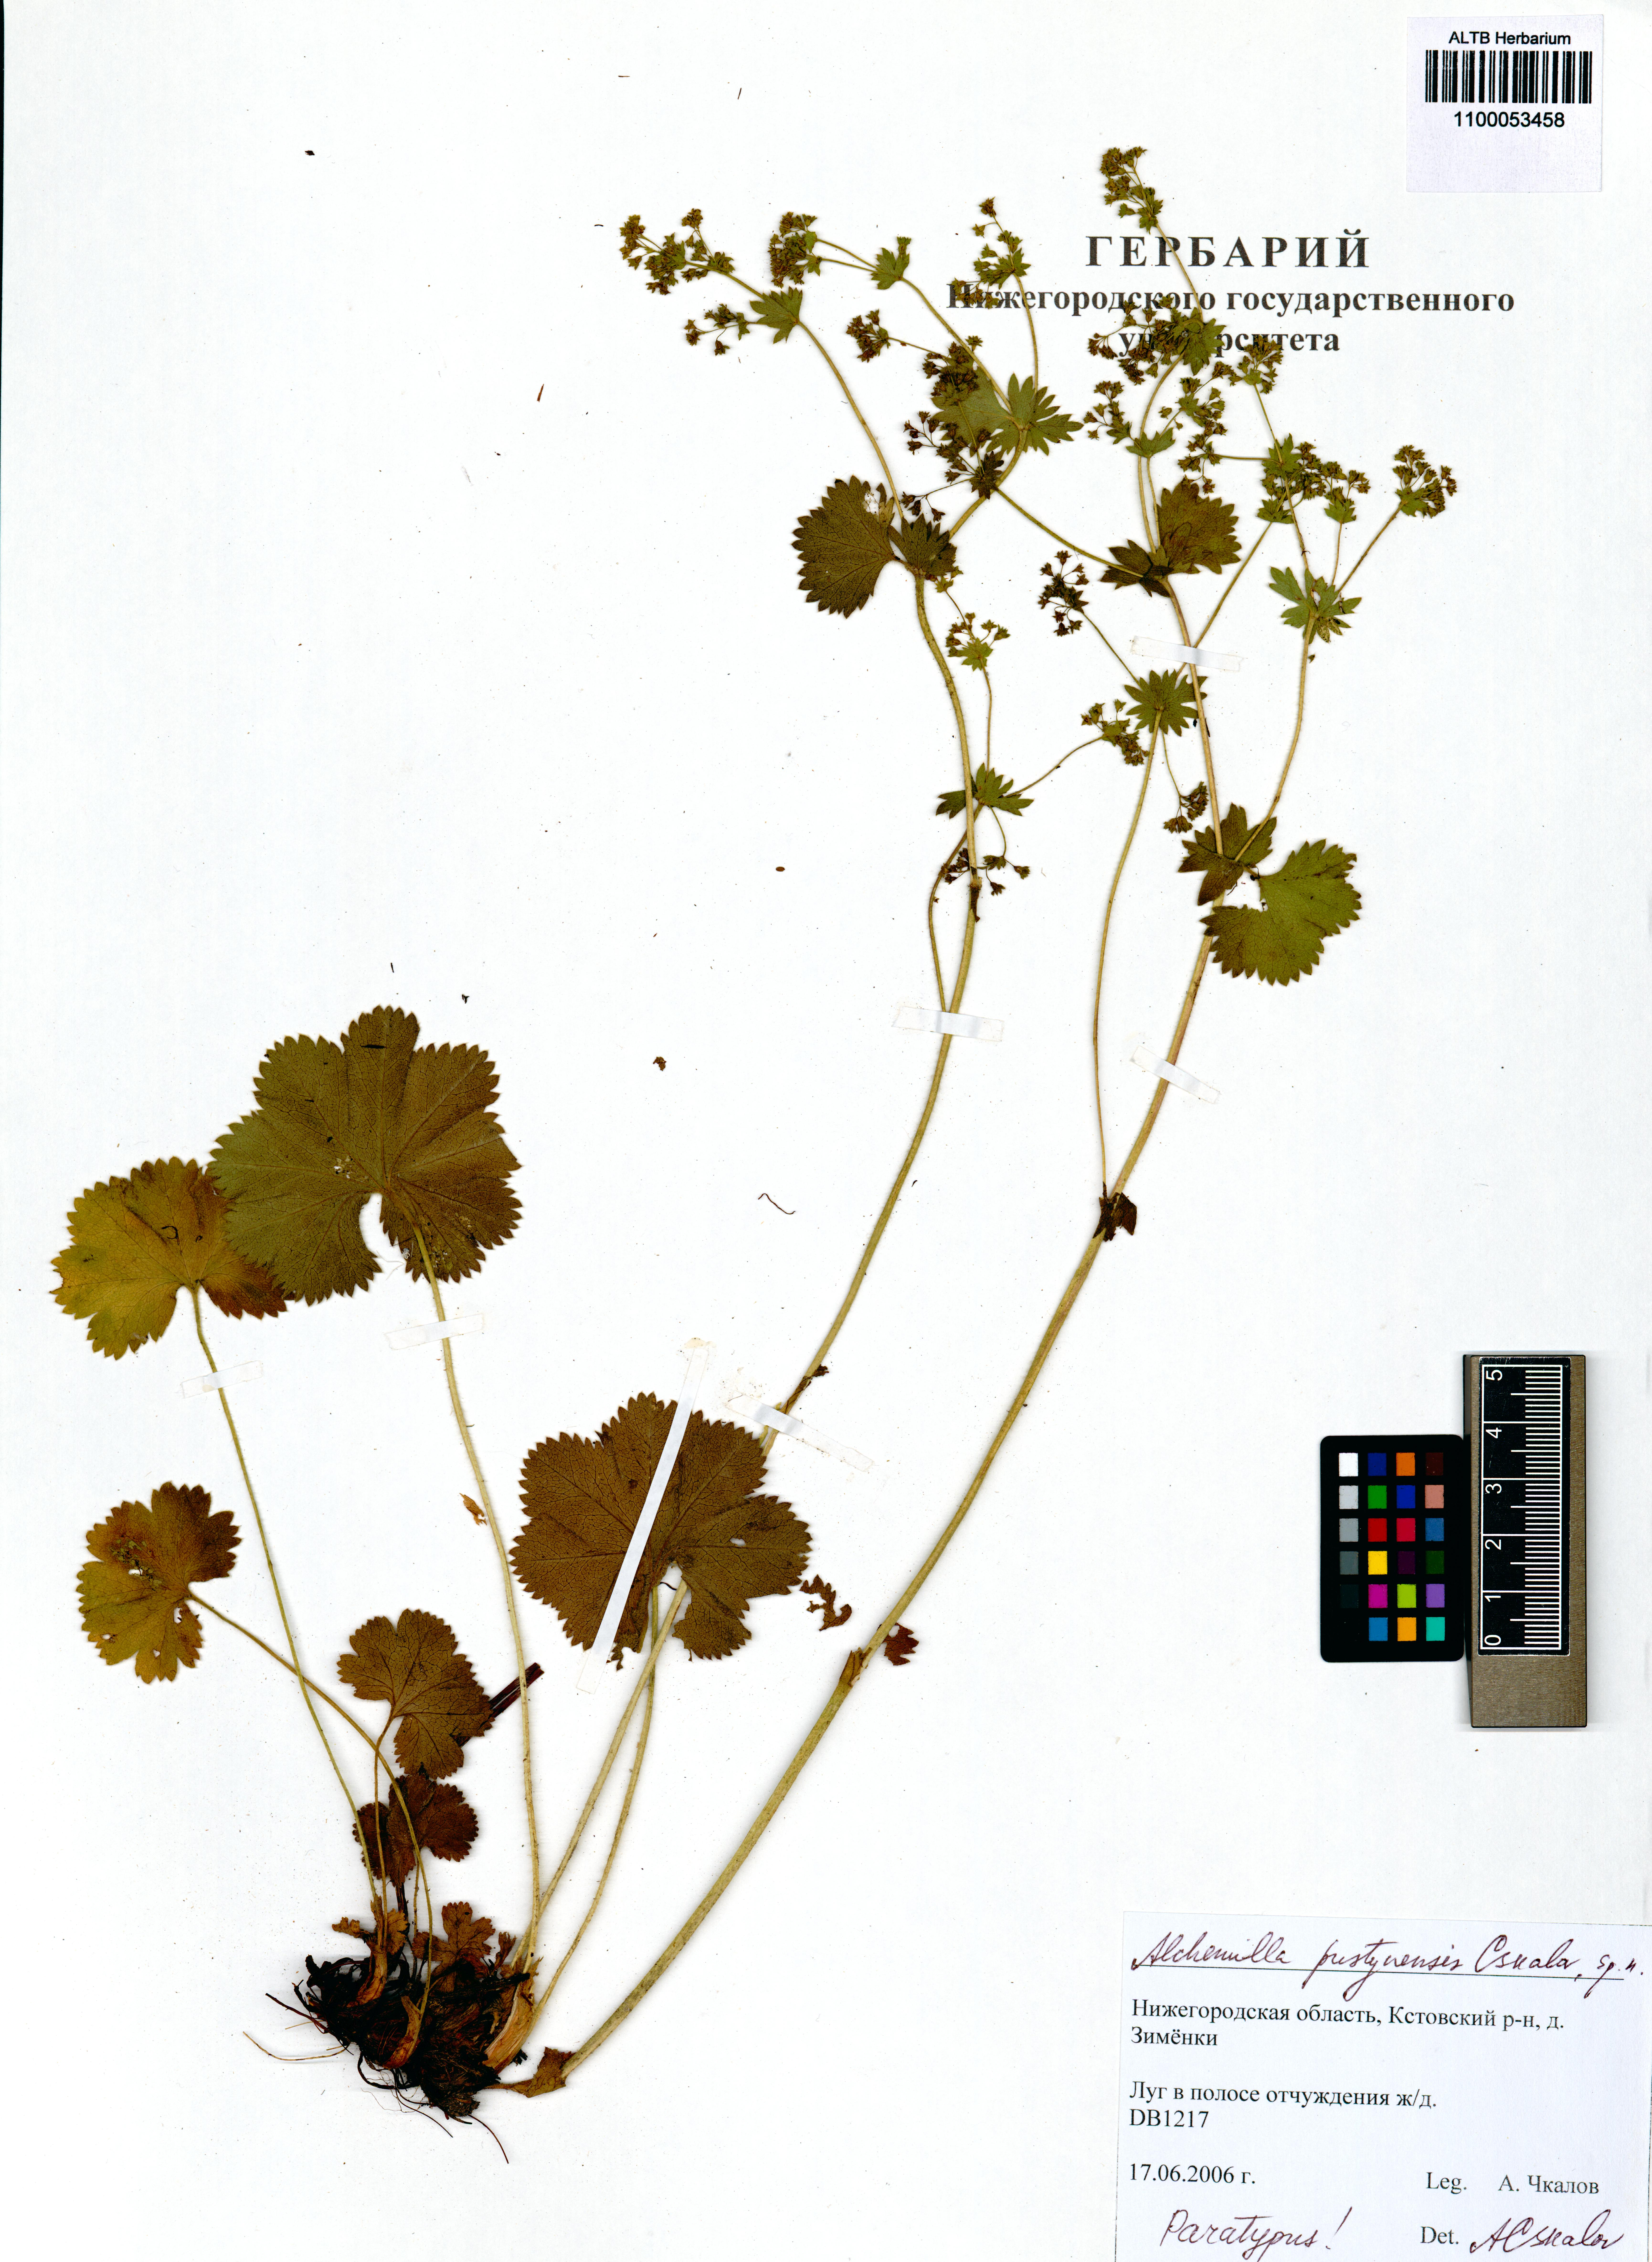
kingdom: Plantae
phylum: Tracheophyta
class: Magnoliopsida
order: Rosales
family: Rosaceae
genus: Alchemilla
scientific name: Alchemilla pustynensis
